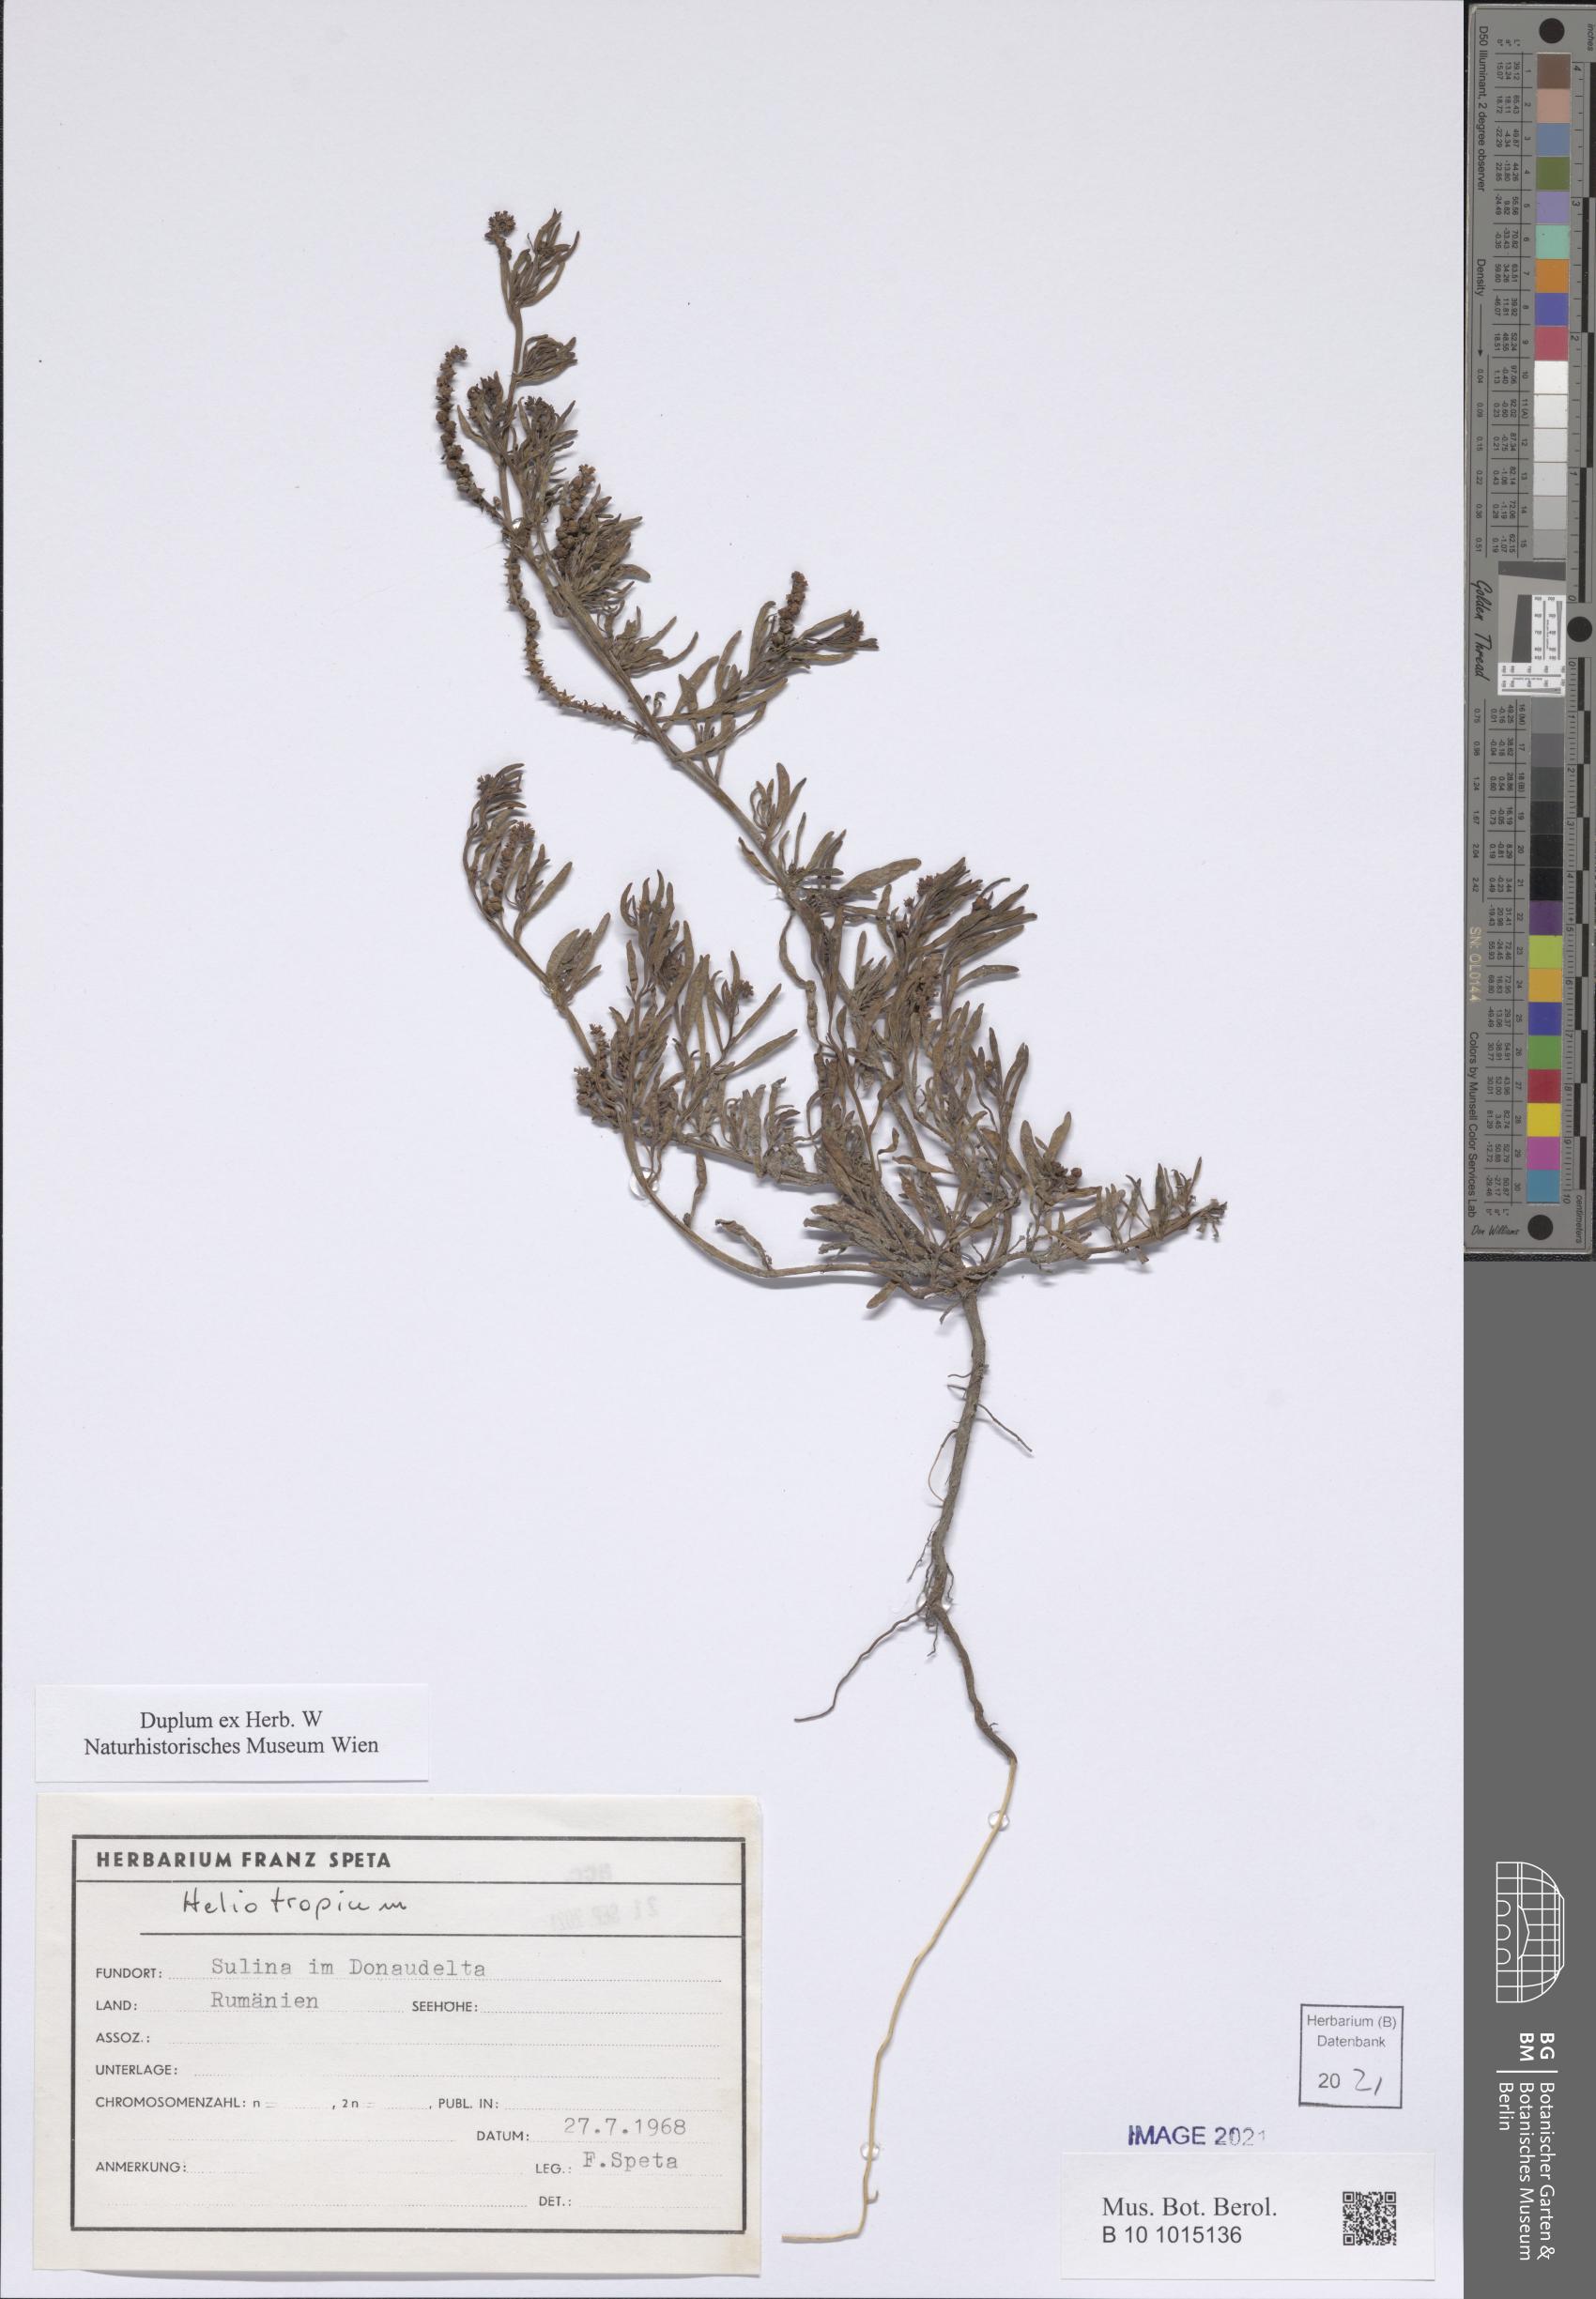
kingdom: Plantae
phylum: Tracheophyta
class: Magnoliopsida
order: Boraginales
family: Heliotropiaceae
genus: Heliotropium
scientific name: Heliotropium
